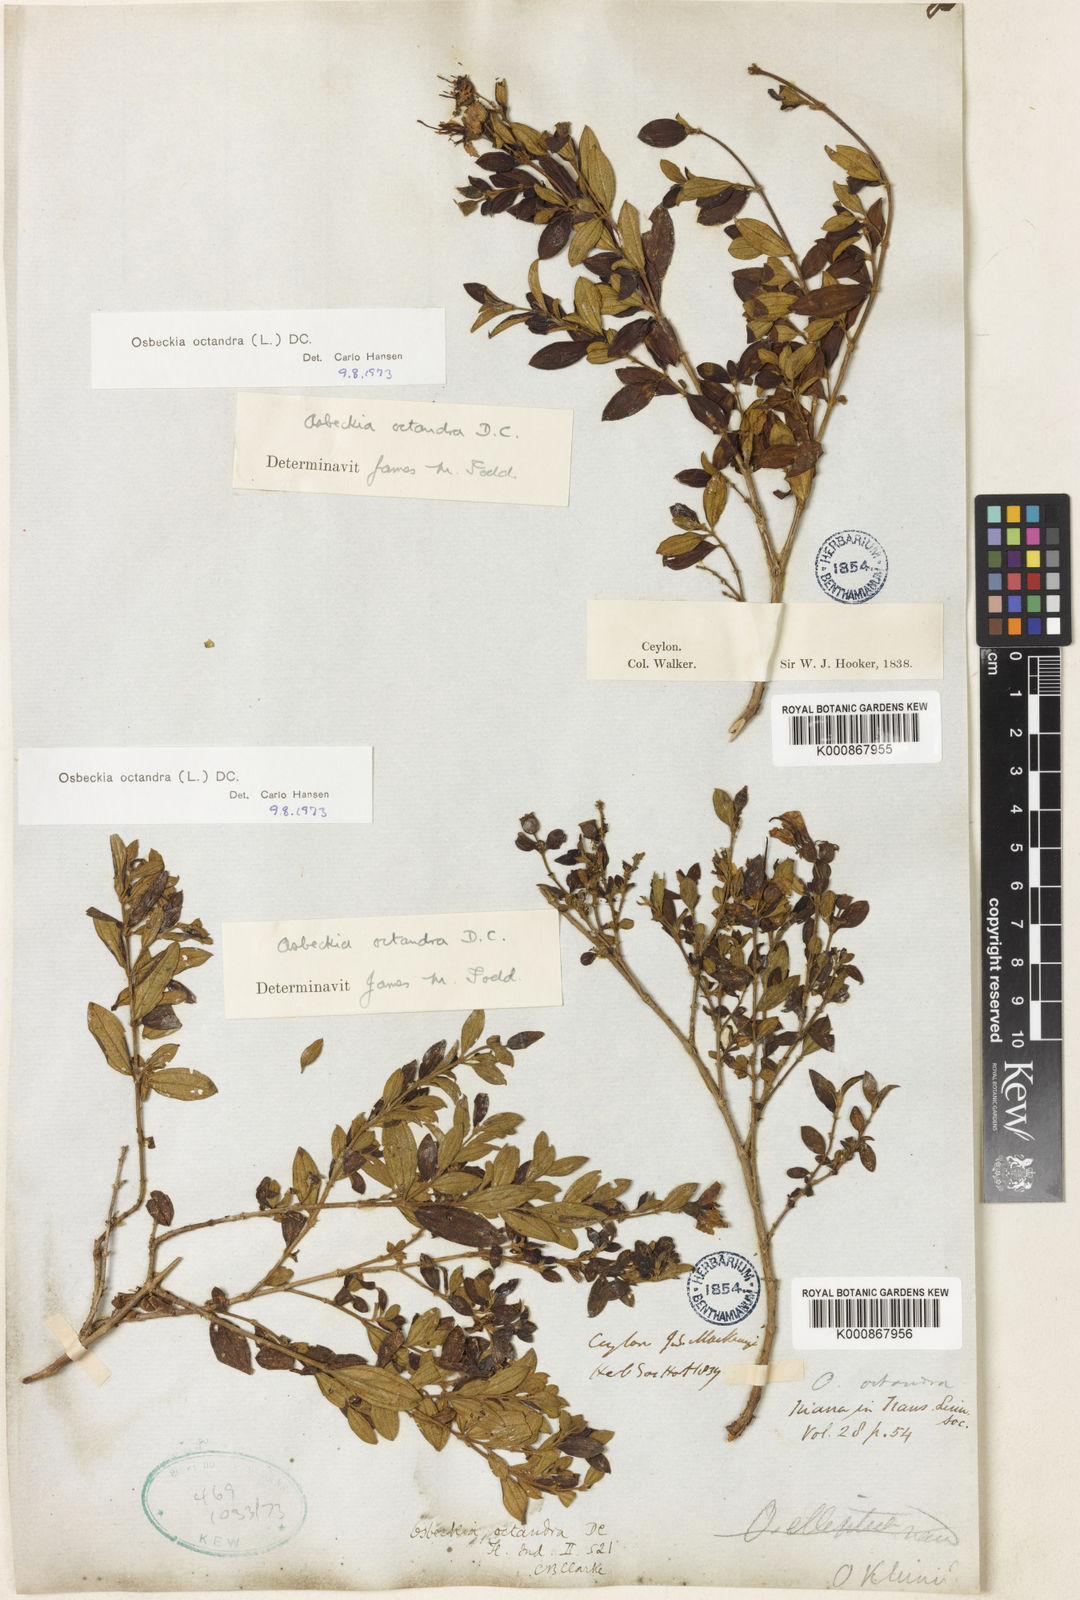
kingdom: Plantae
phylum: Tracheophyta
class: Magnoliopsida
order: Myrtales
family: Melastomataceae
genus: Osbeckia
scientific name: Osbeckia octandra
